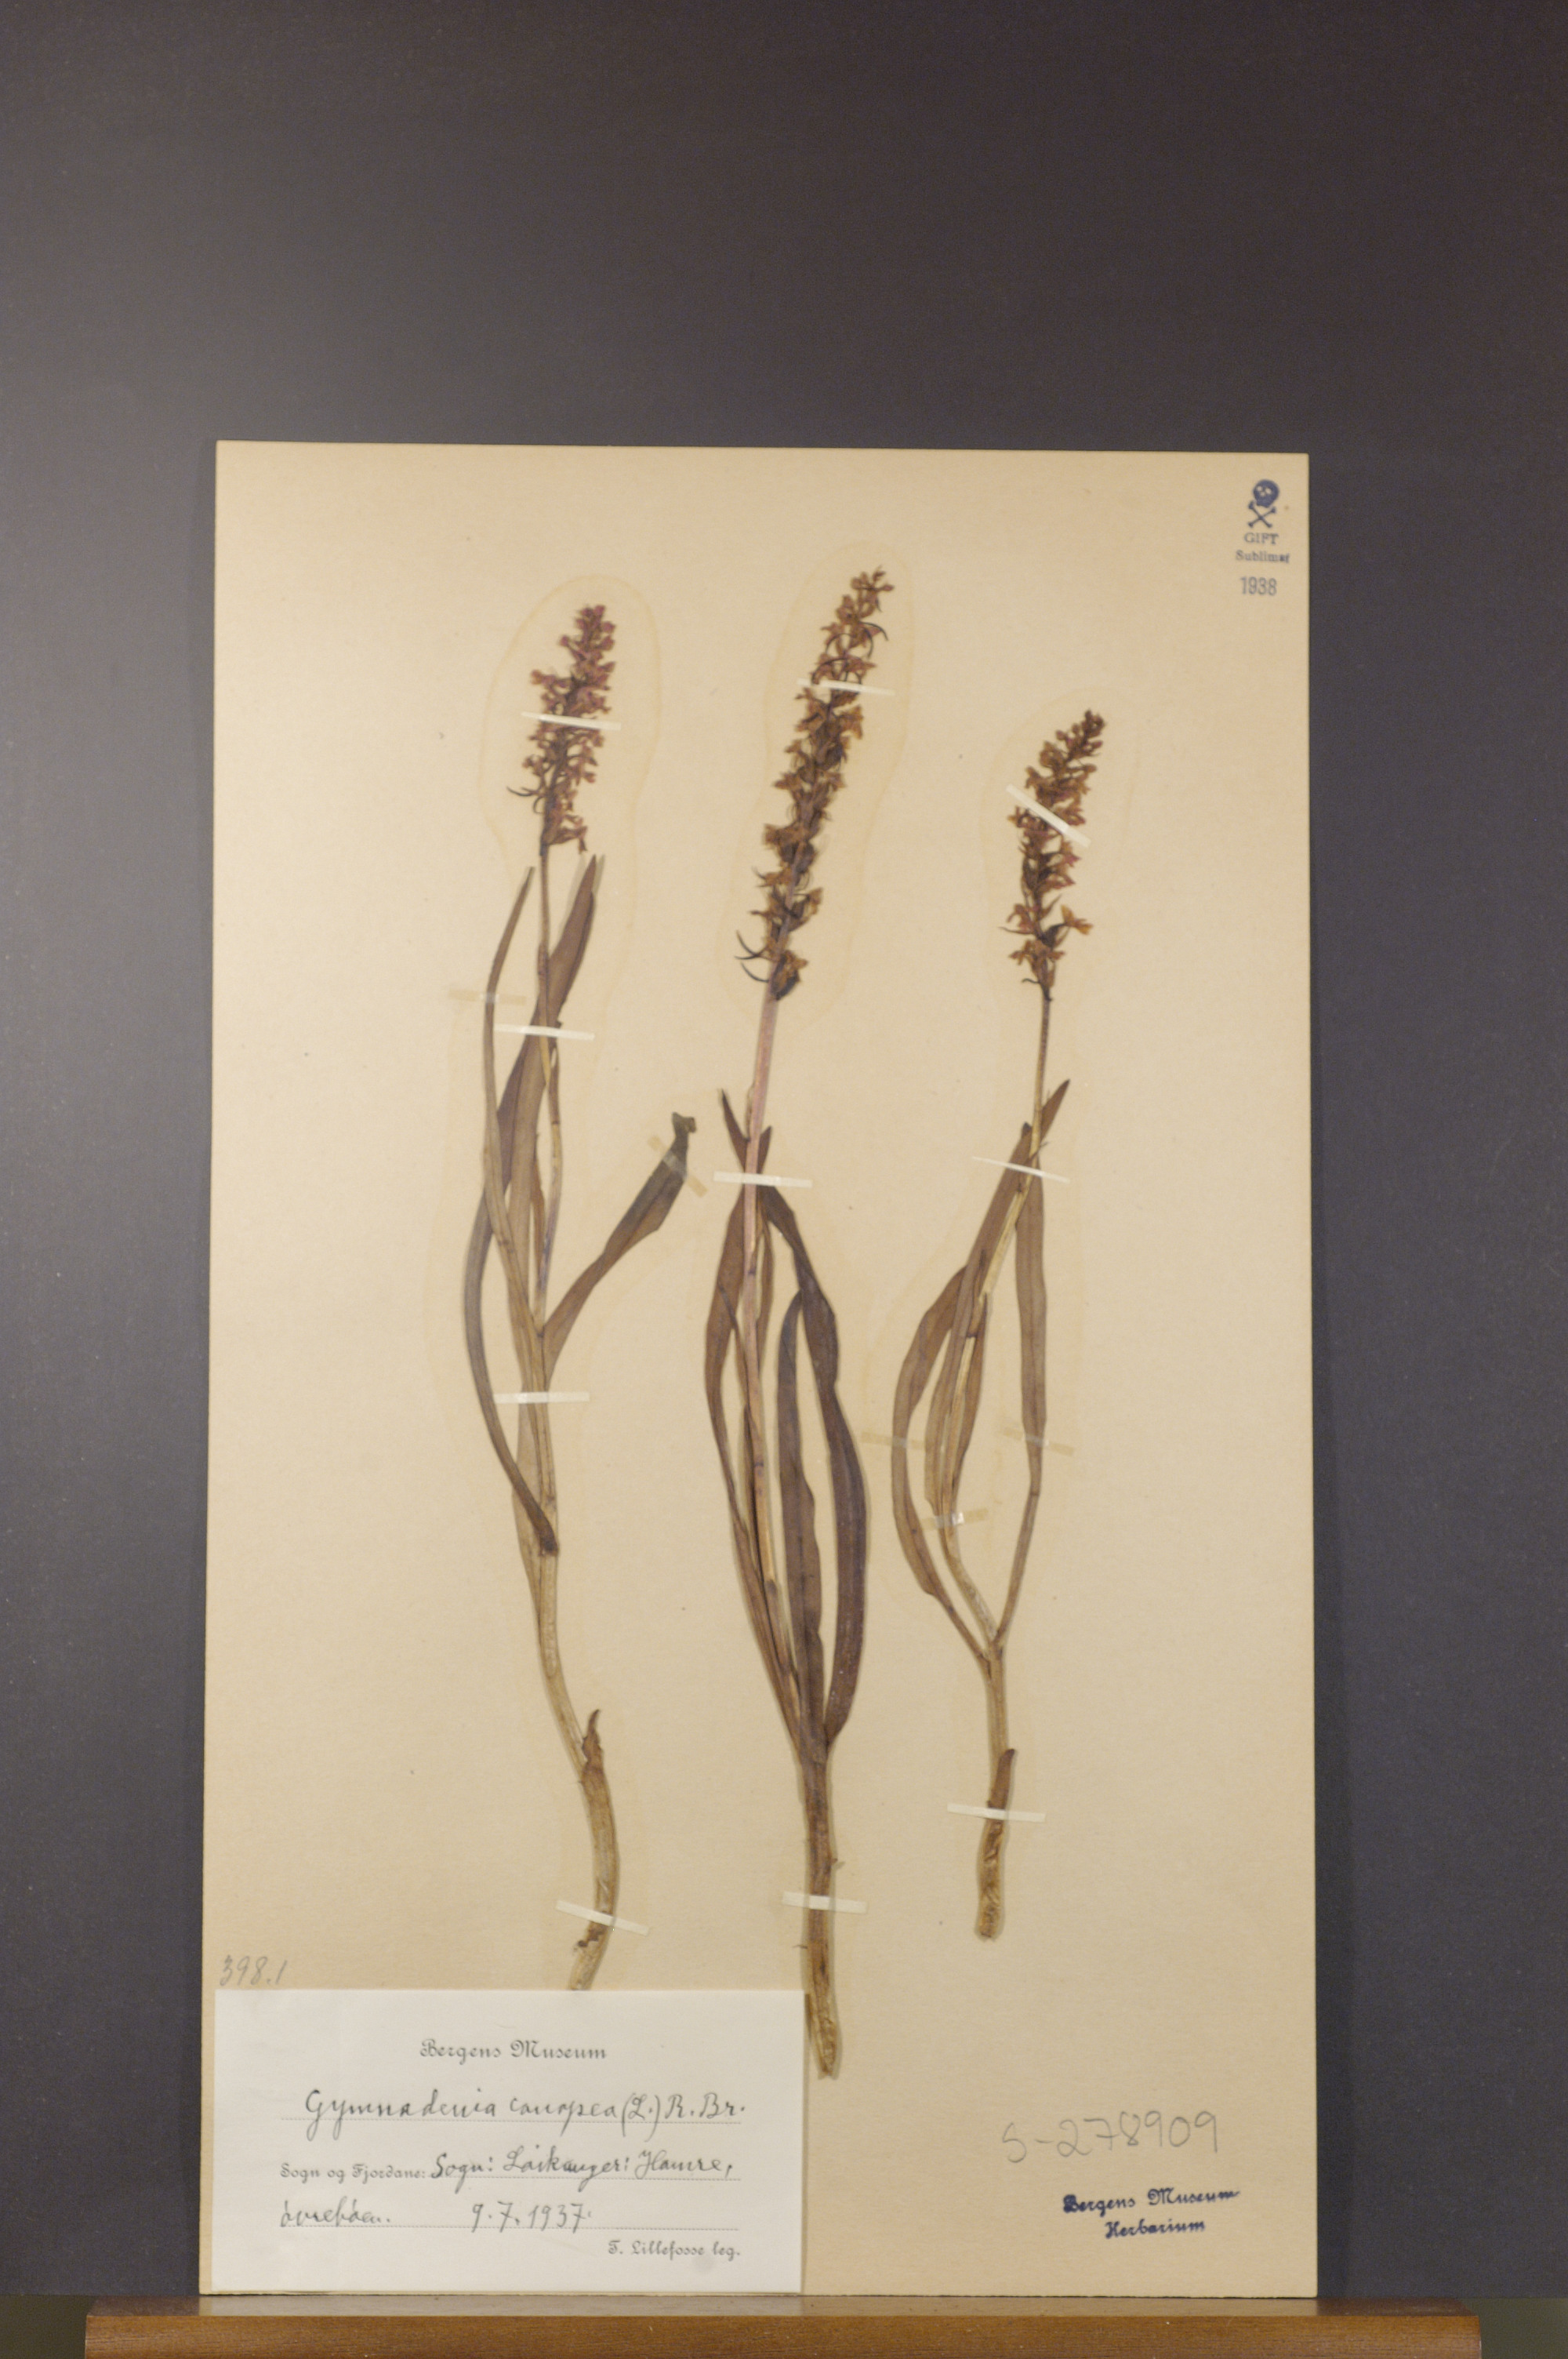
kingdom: Plantae
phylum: Tracheophyta
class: Liliopsida
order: Asparagales
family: Orchidaceae
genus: Gymnadenia
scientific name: Gymnadenia conopsea
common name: Fragrant orchid
